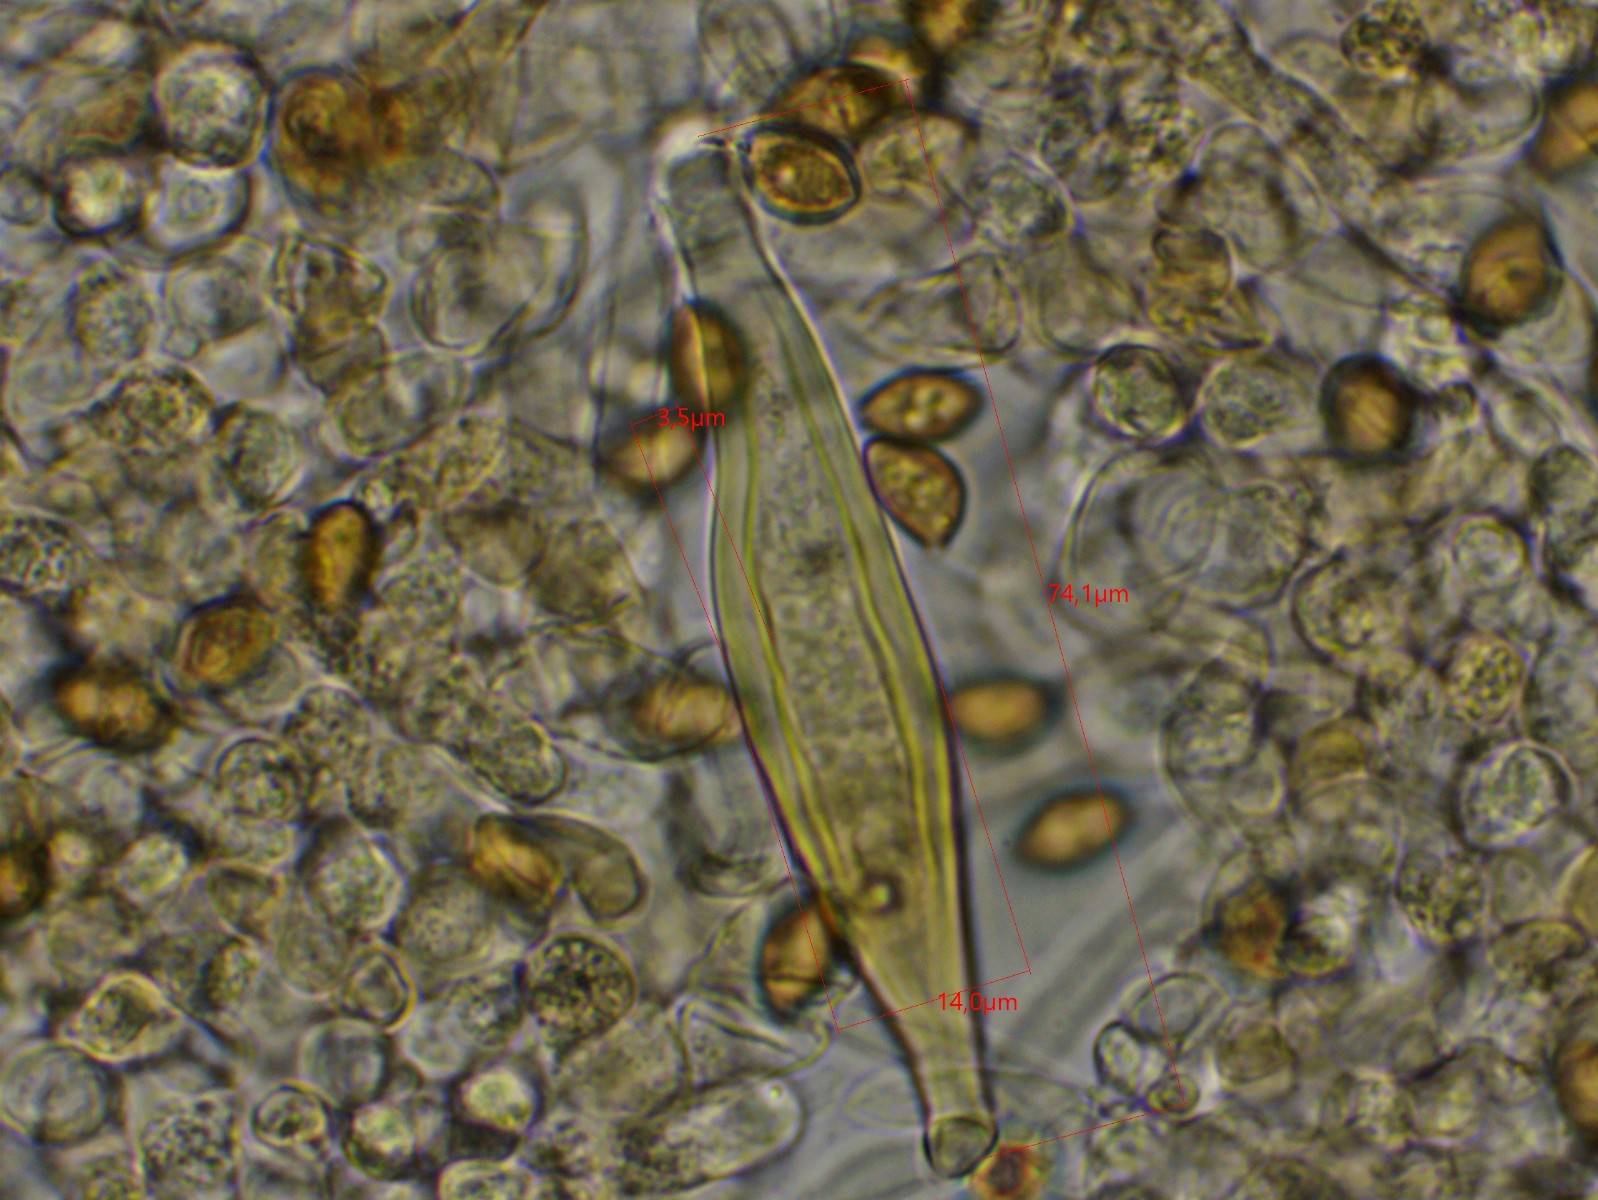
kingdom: Fungi
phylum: Basidiomycota
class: Agaricomycetes
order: Agaricales
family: Inocybaceae
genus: Inocybe
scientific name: Inocybe cincinnata
